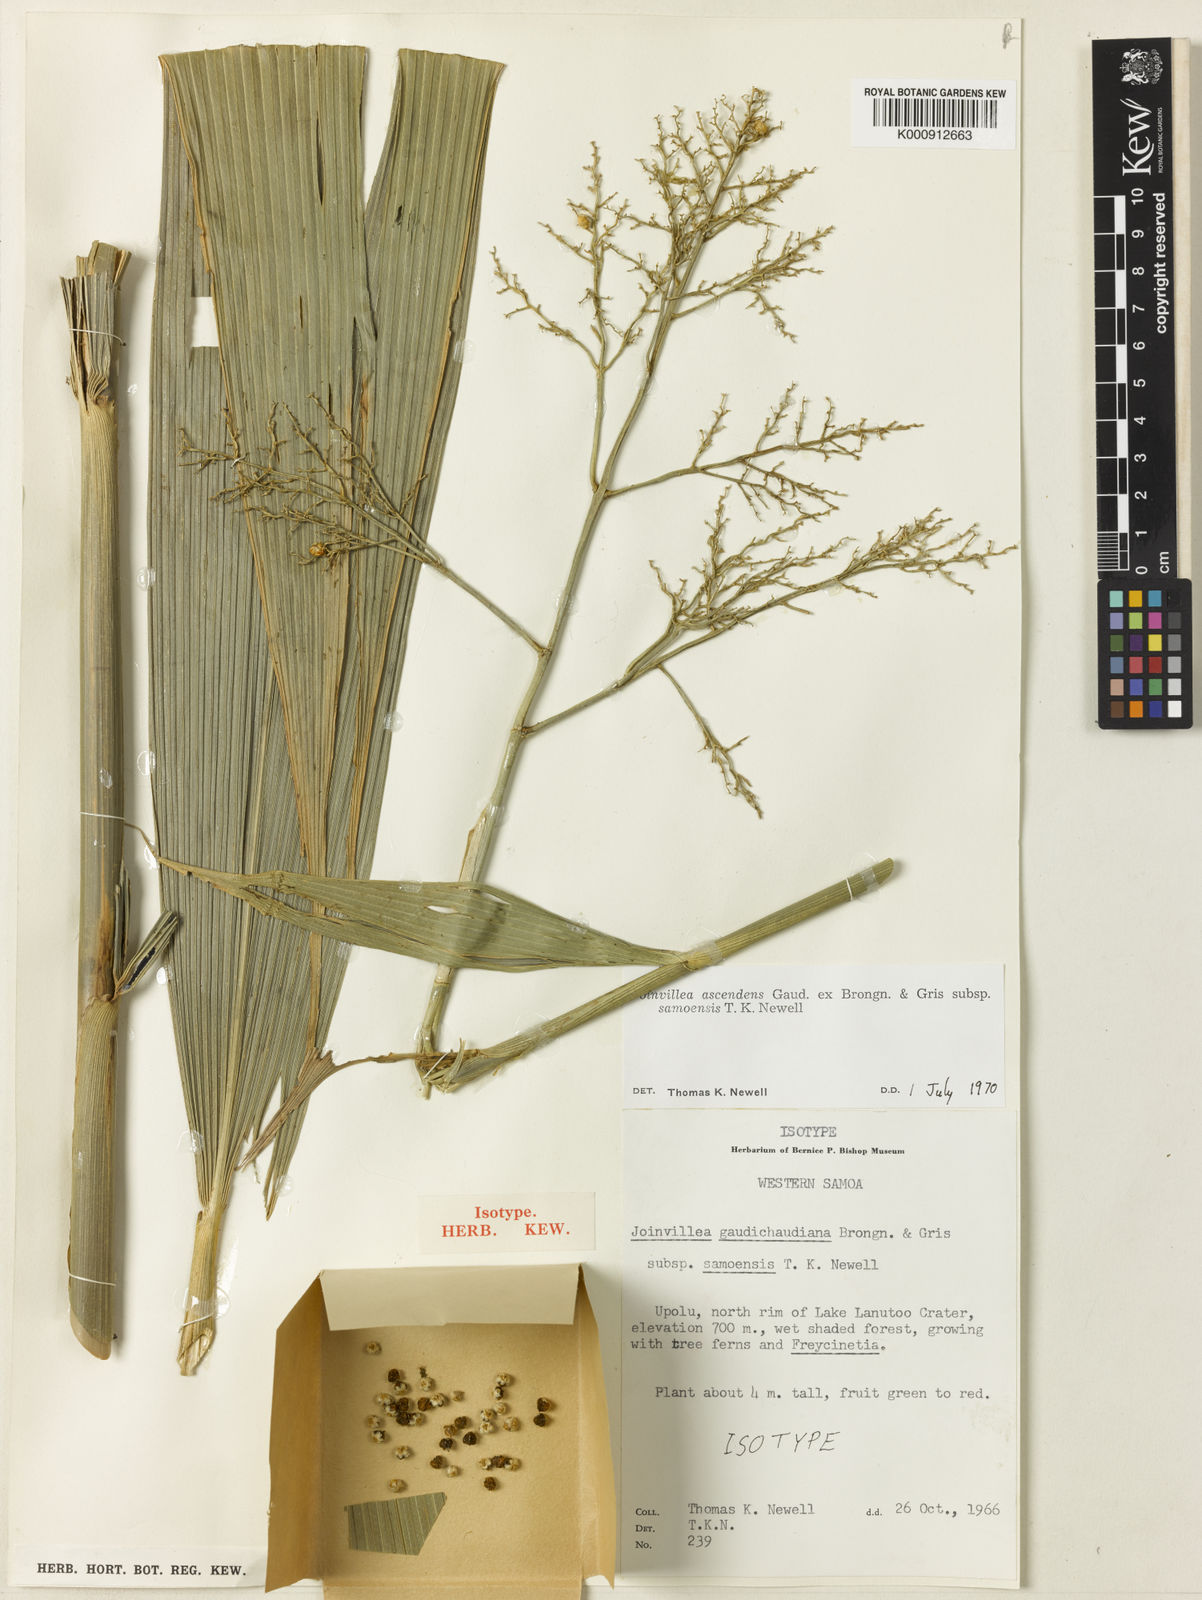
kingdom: Plantae
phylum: Tracheophyta
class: Liliopsida
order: Poales
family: Joinvilleaceae
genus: Joinvillea
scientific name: Joinvillea ascendens
